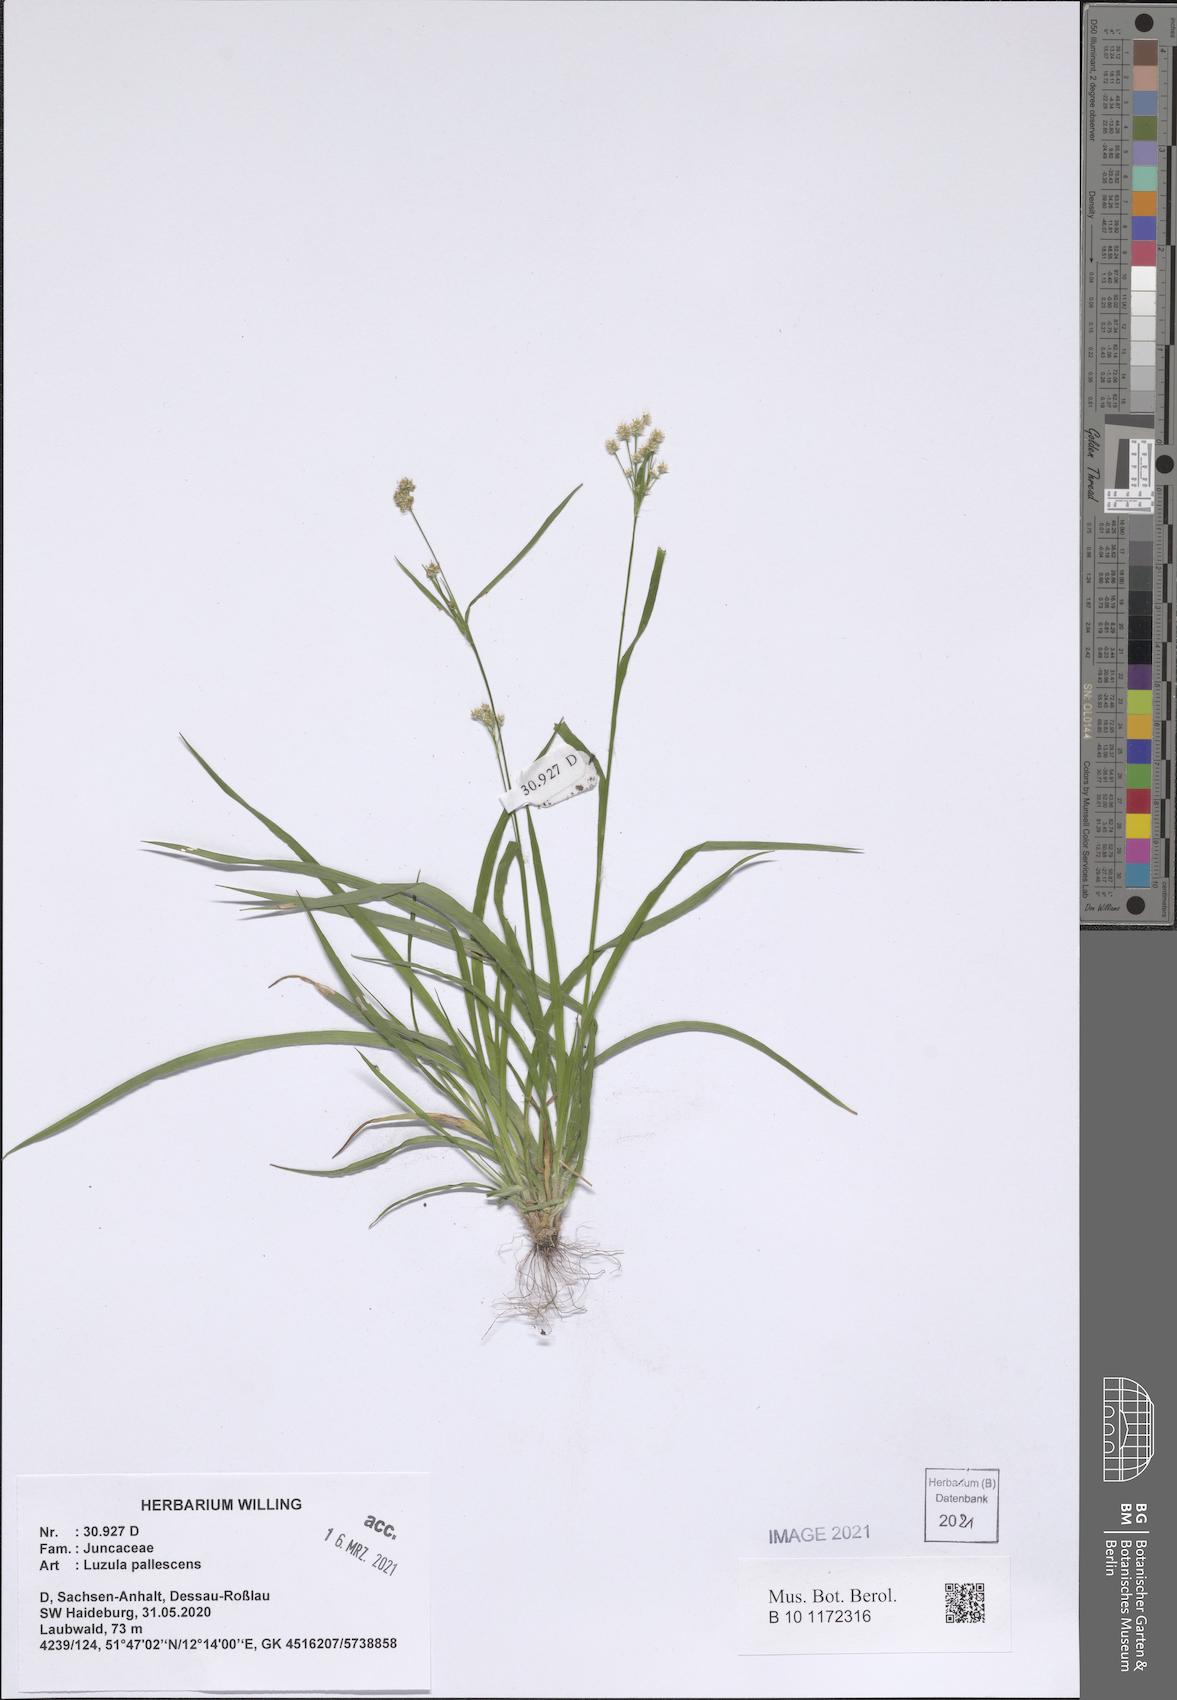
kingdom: Plantae
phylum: Tracheophyta
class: Liliopsida
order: Poales
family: Juncaceae
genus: Luzula
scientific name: Luzula pallescens
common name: Fen wood-rush
